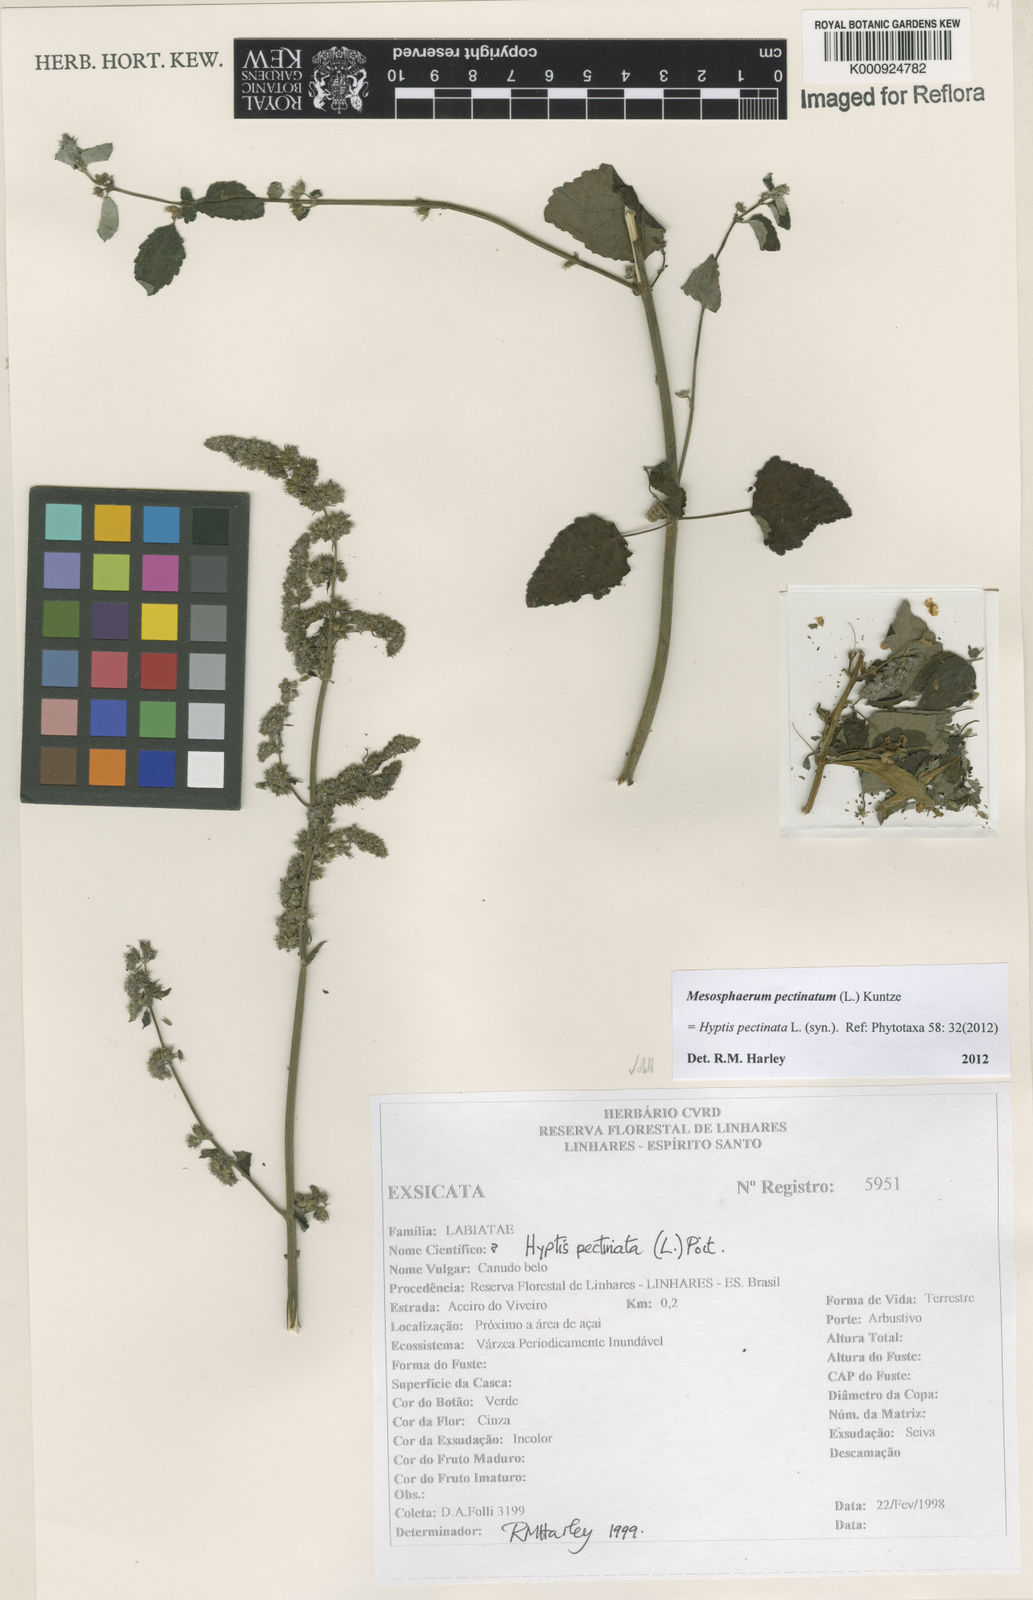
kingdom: Plantae
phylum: Tracheophyta
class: Magnoliopsida
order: Lamiales
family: Lamiaceae
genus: Mesosphaerum
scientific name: Mesosphaerum pectinatum
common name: Comb hyptis
